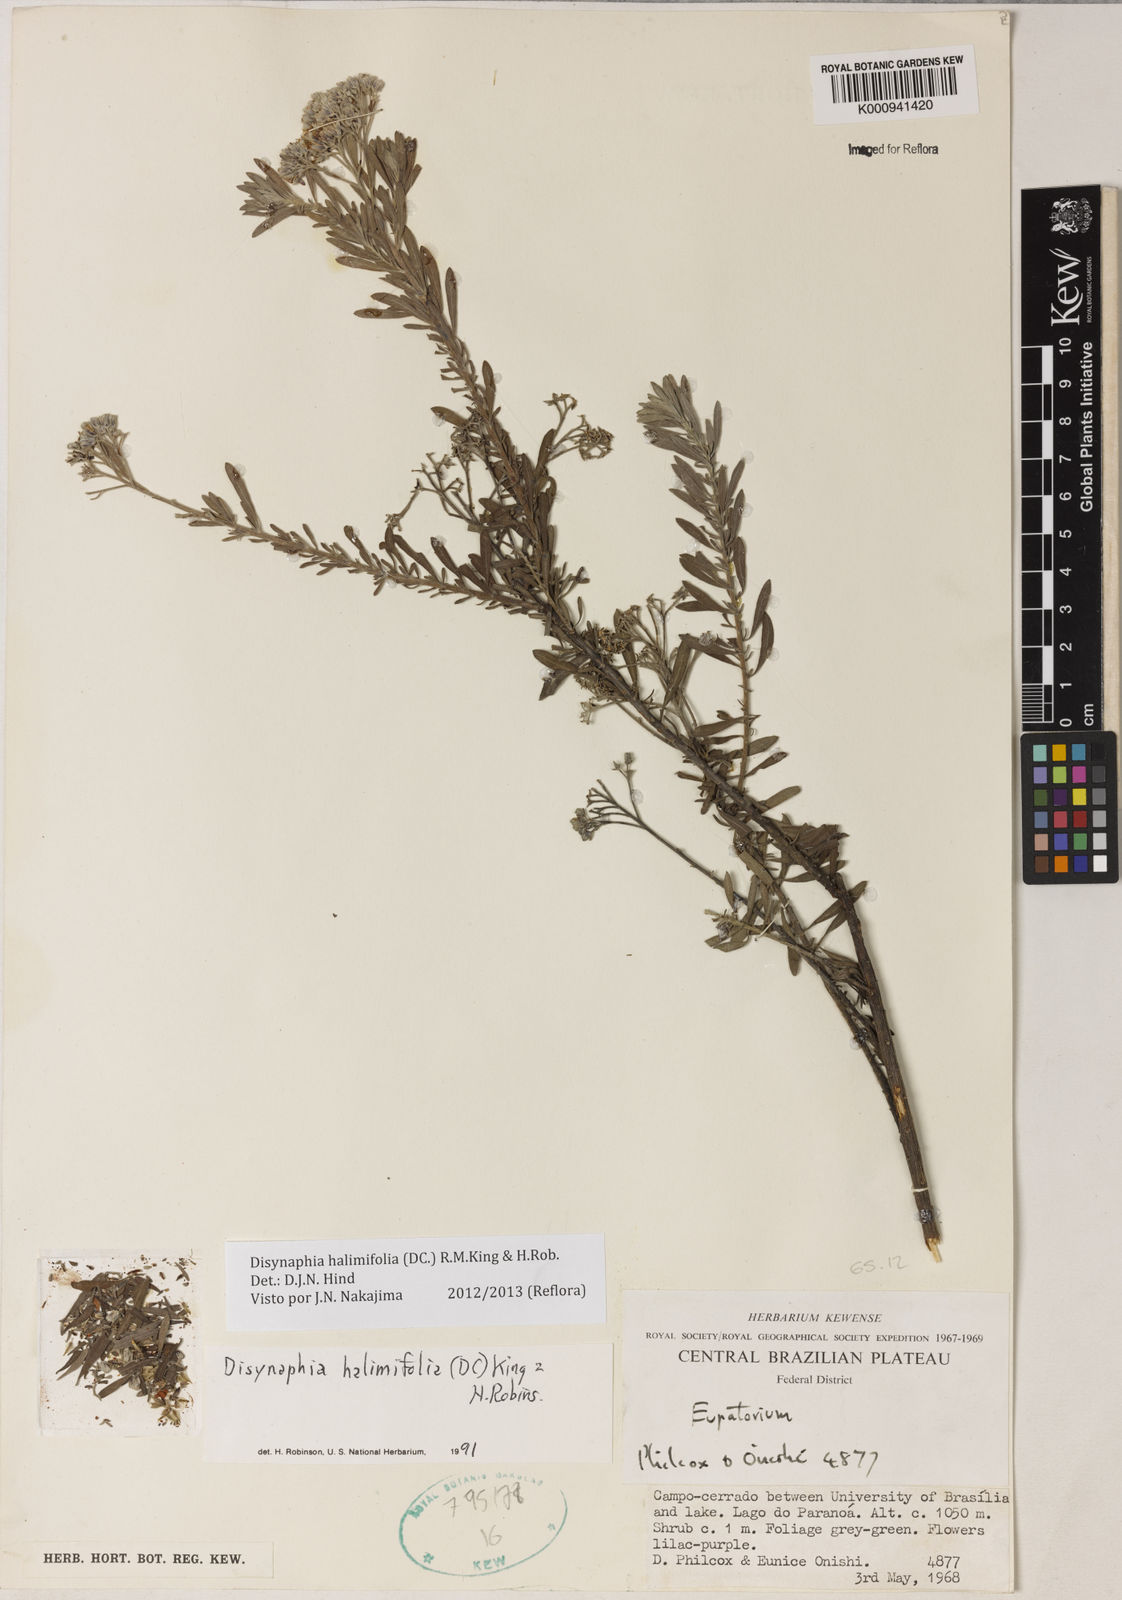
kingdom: Plantae
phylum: Tracheophyta
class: Magnoliopsida
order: Asterales
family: Asteraceae
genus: Disynaphia
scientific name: Disynaphia halimifolia
